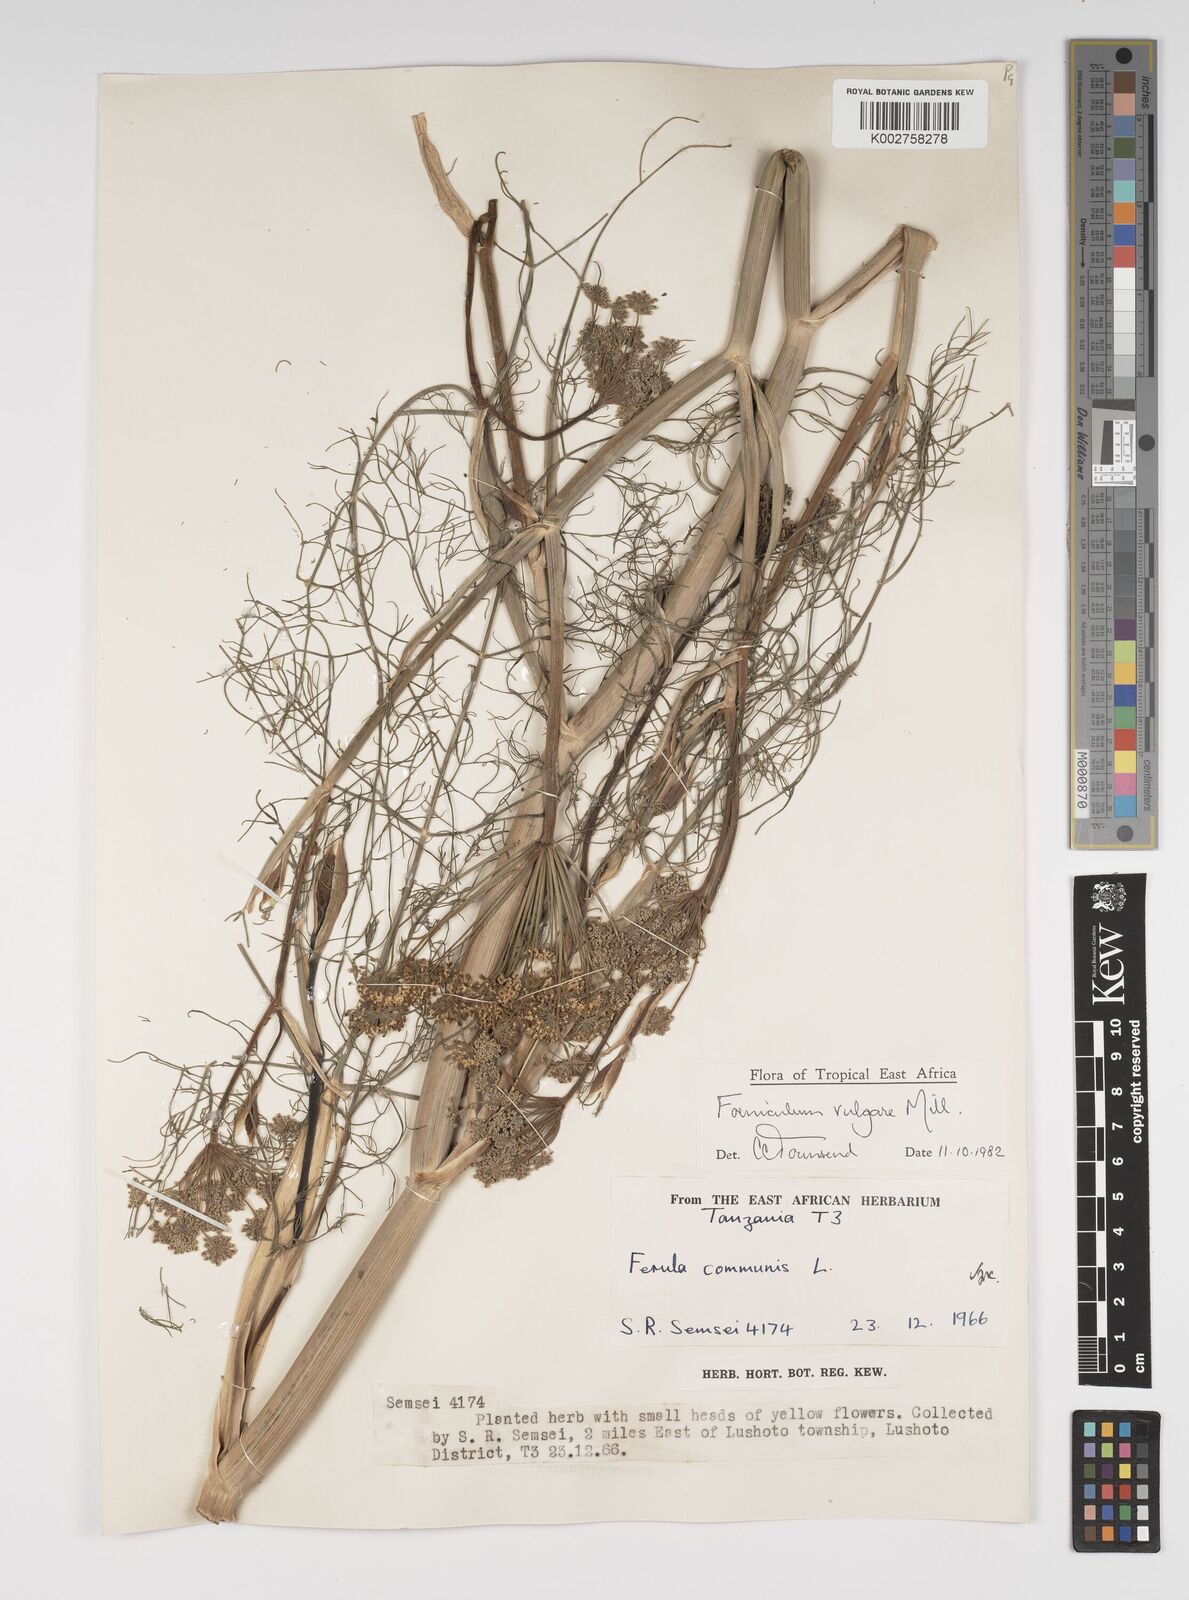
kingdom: Plantae
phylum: Tracheophyta
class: Magnoliopsida
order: Apiales
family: Apiaceae
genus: Foeniculum
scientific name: Foeniculum vulgare
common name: Fennel
